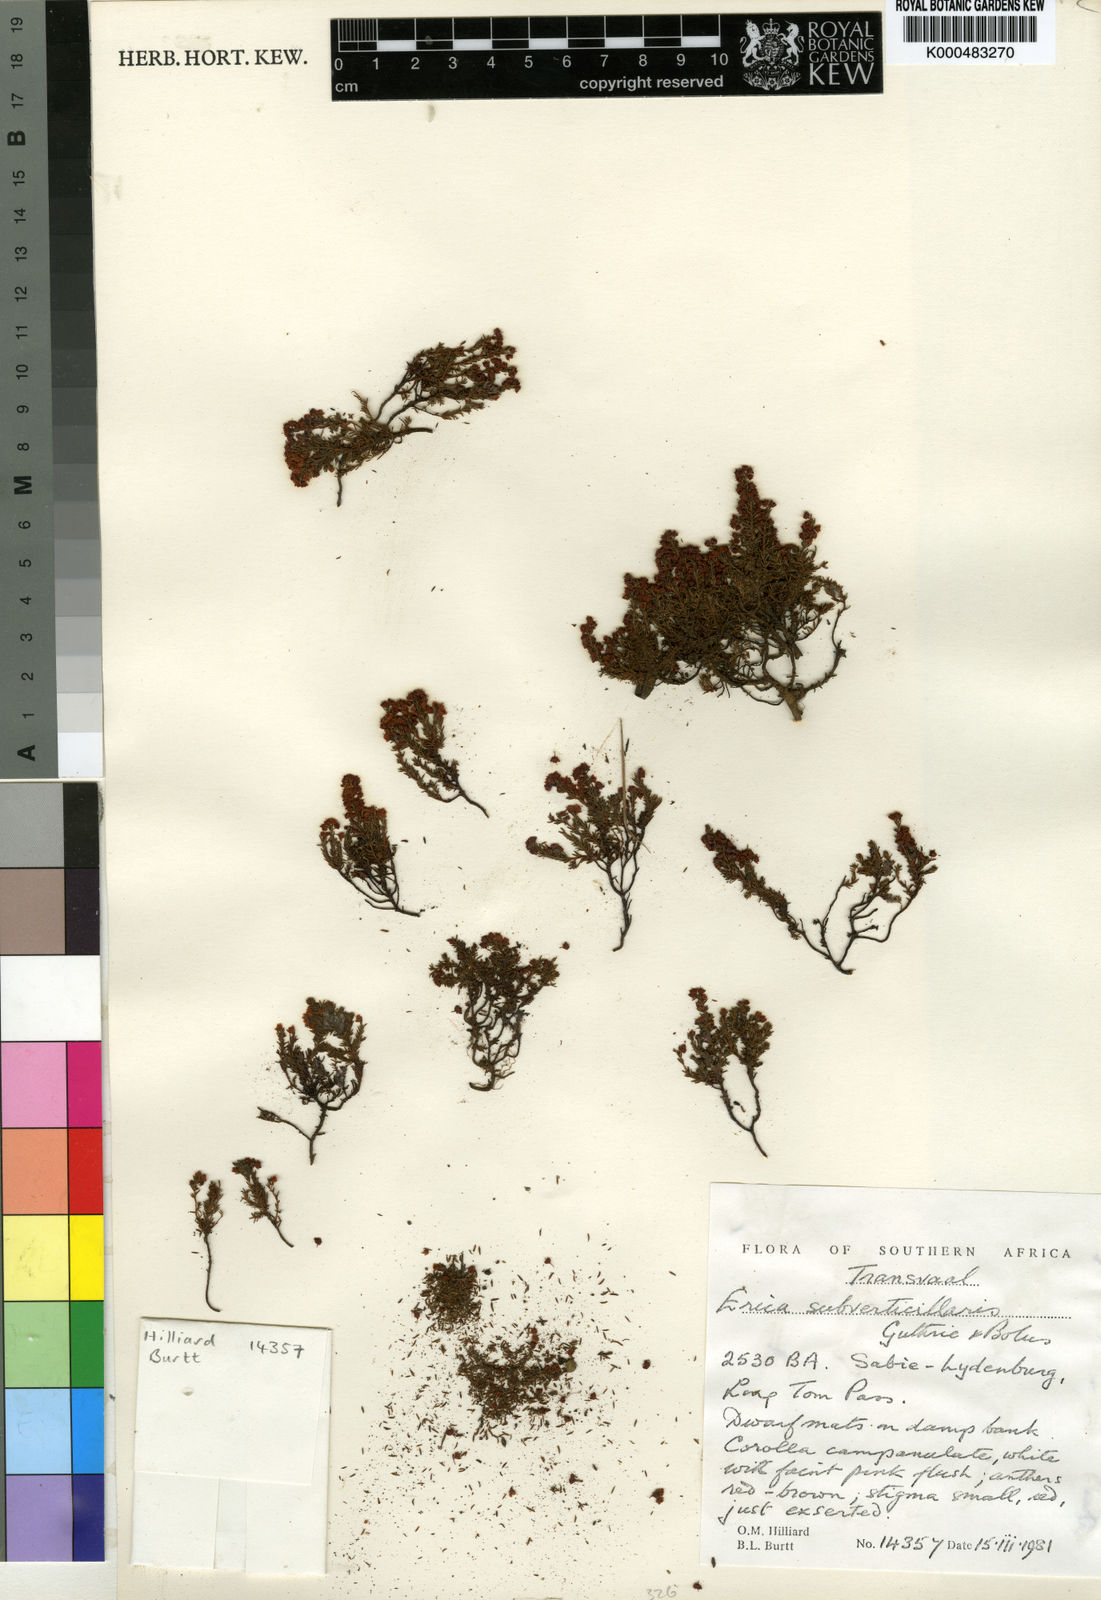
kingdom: Plantae
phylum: Tracheophyta
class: Magnoliopsida
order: Ericales
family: Ericaceae
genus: Erica
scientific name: Erica subverticillaris
